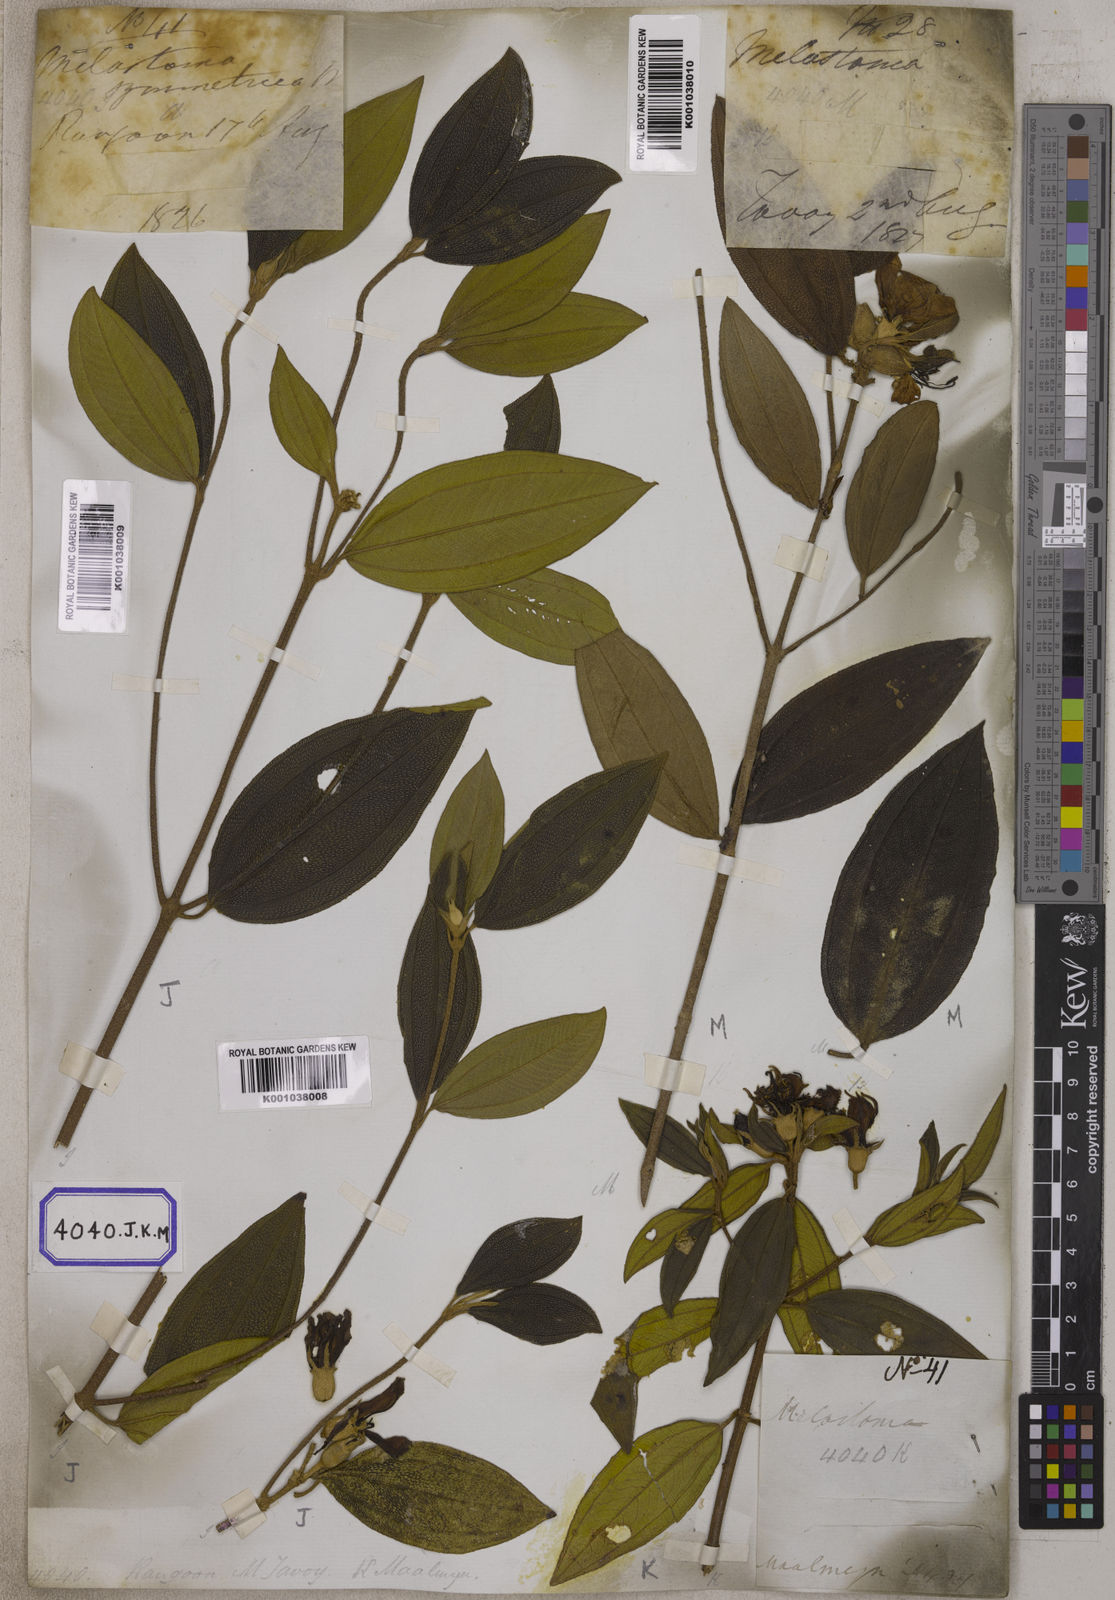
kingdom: Plantae
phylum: Tracheophyta
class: Magnoliopsida
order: Myrtales
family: Melastomataceae
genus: Melastoma
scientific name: Melastoma malabathricum
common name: Indian-rhododendron
